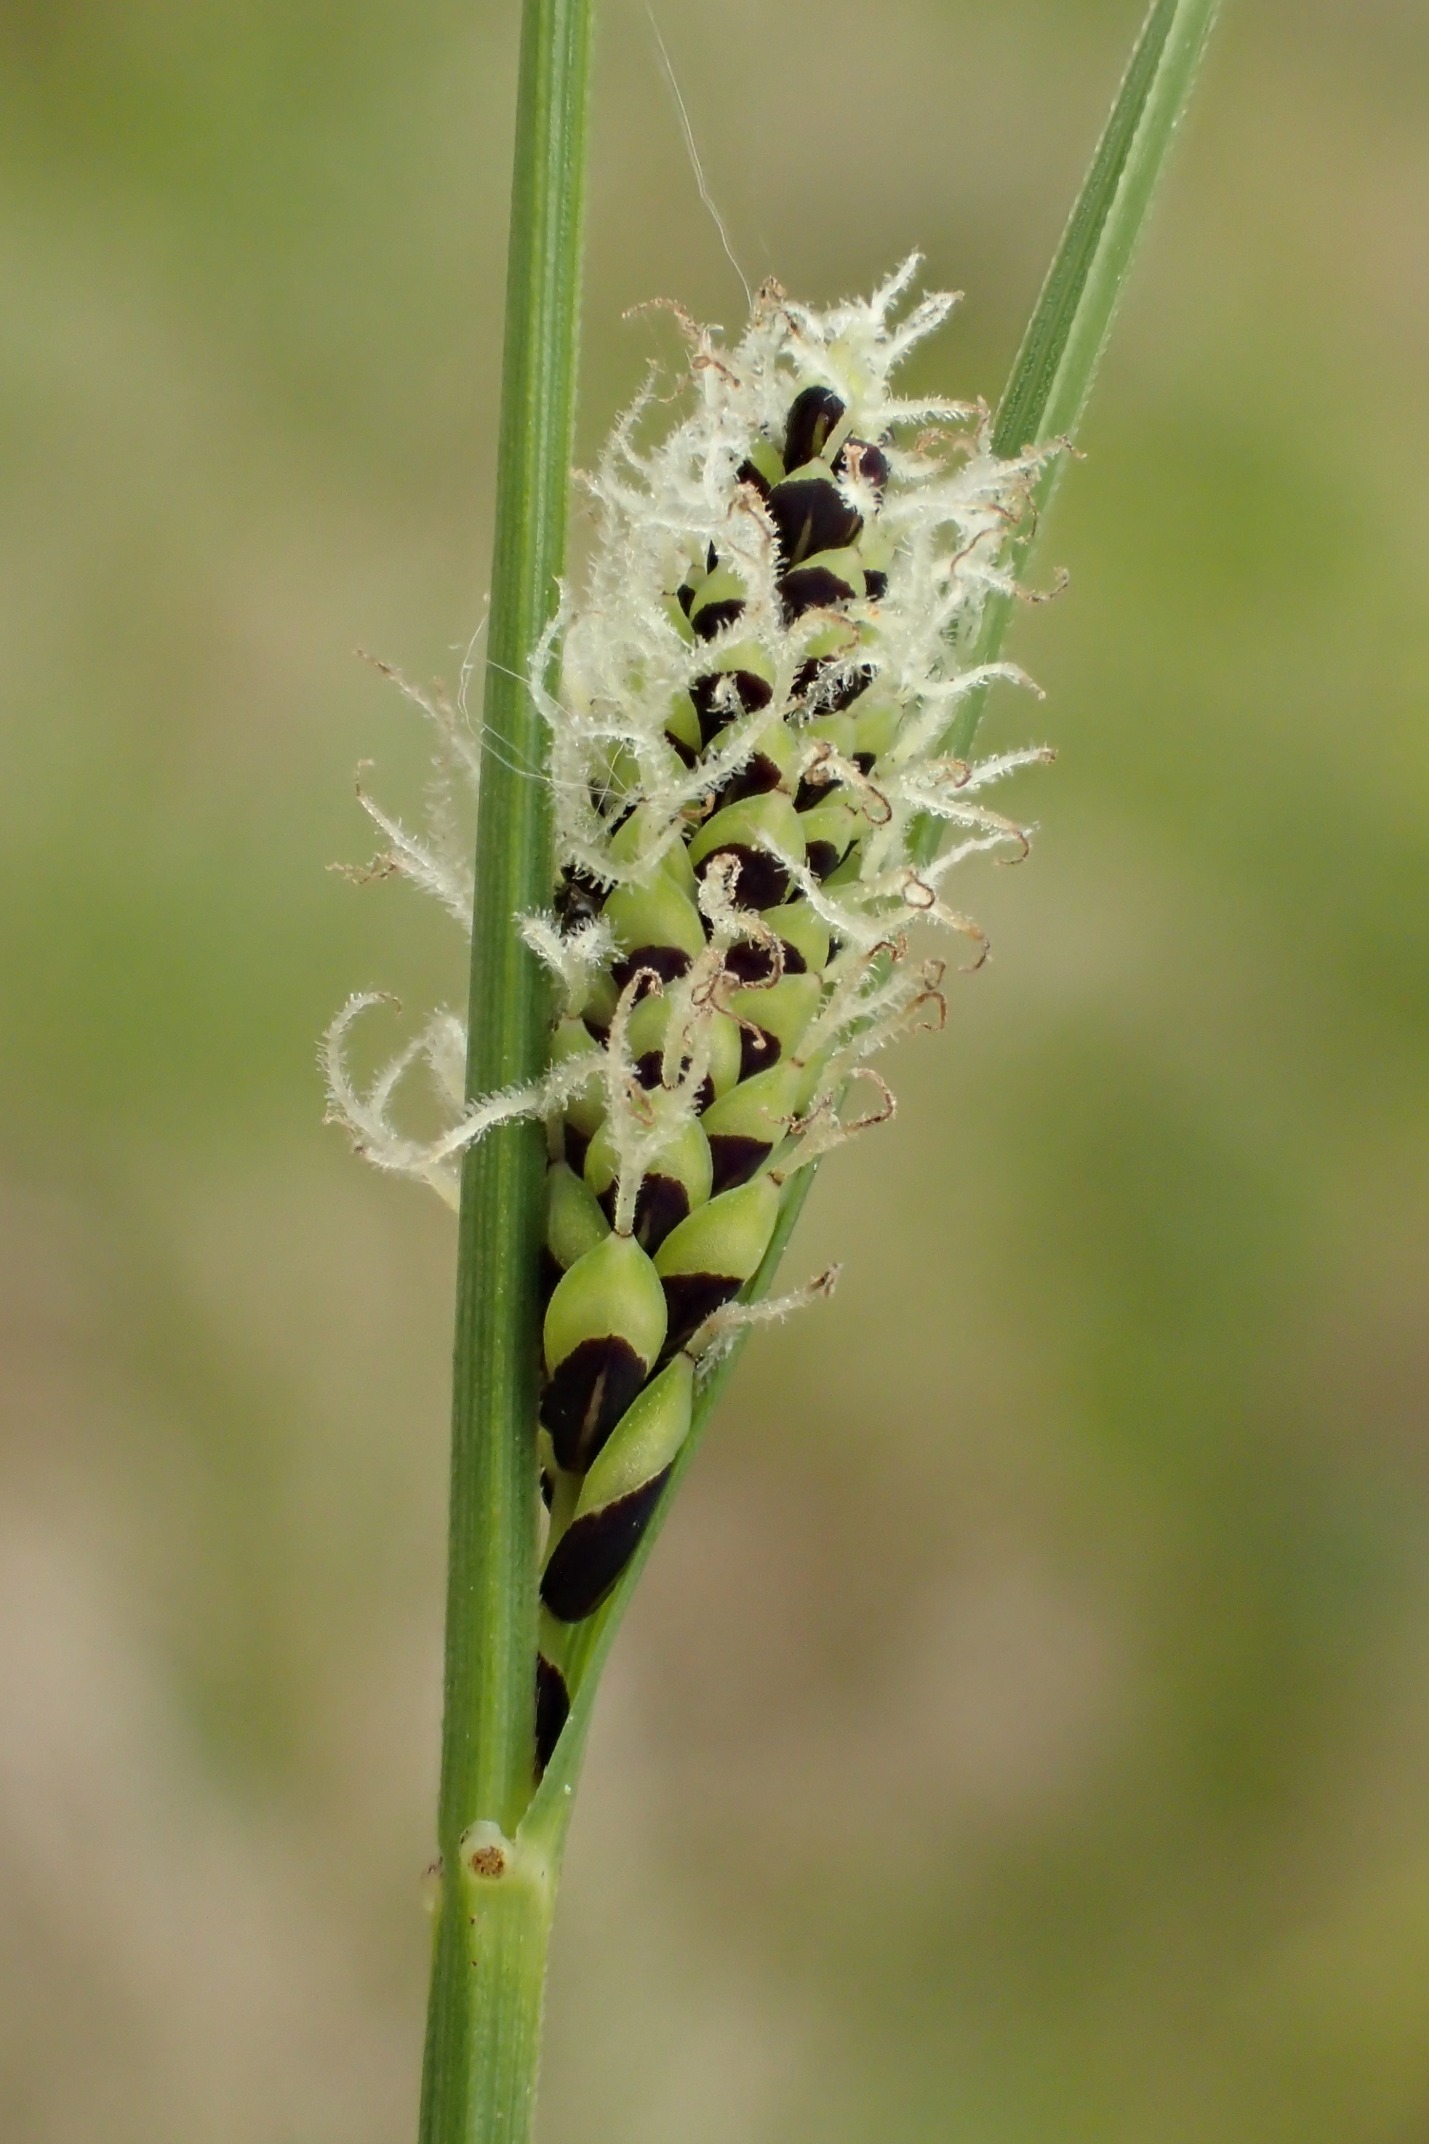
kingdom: Plantae
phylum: Tracheophyta
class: Liliopsida
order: Poales
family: Cyperaceae
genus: Carex
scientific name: Carex nigra
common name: Almindelig star
